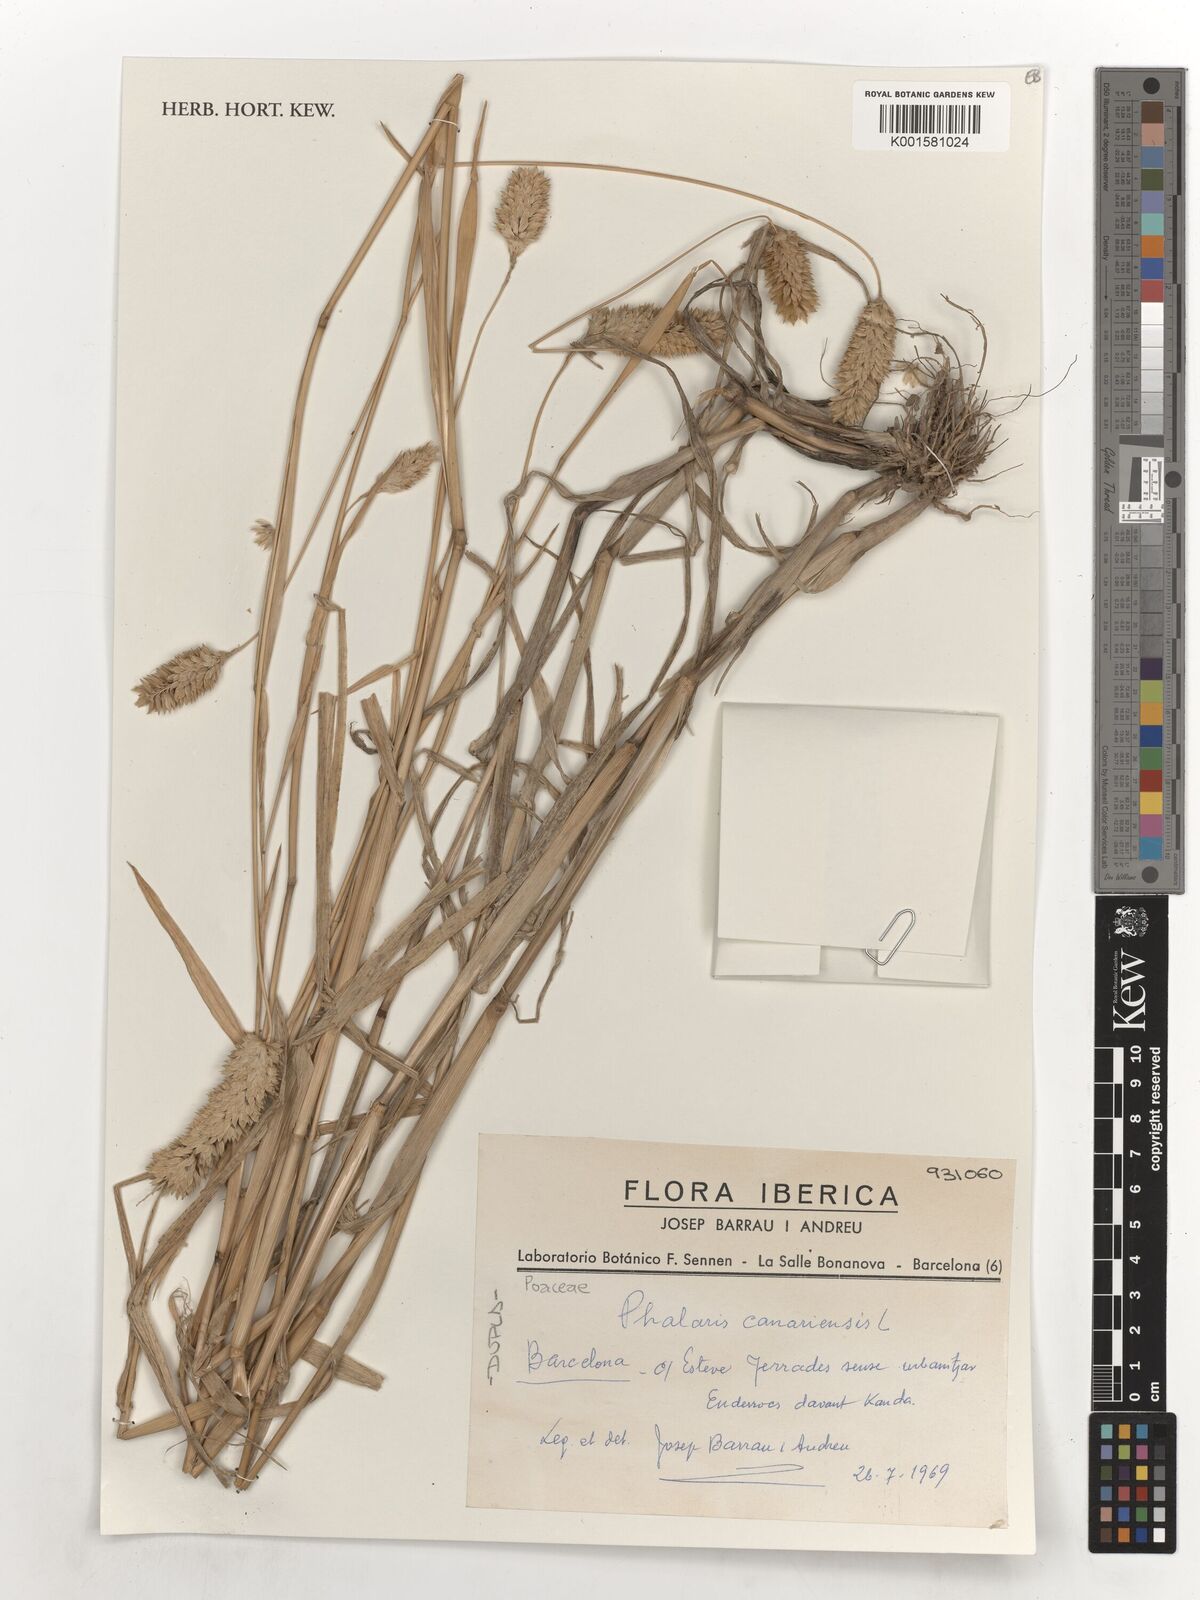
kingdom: Plantae
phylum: Tracheophyta
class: Liliopsida
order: Poales
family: Poaceae
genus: Phalaris
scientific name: Phalaris canariensis
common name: Annual canarygrass
